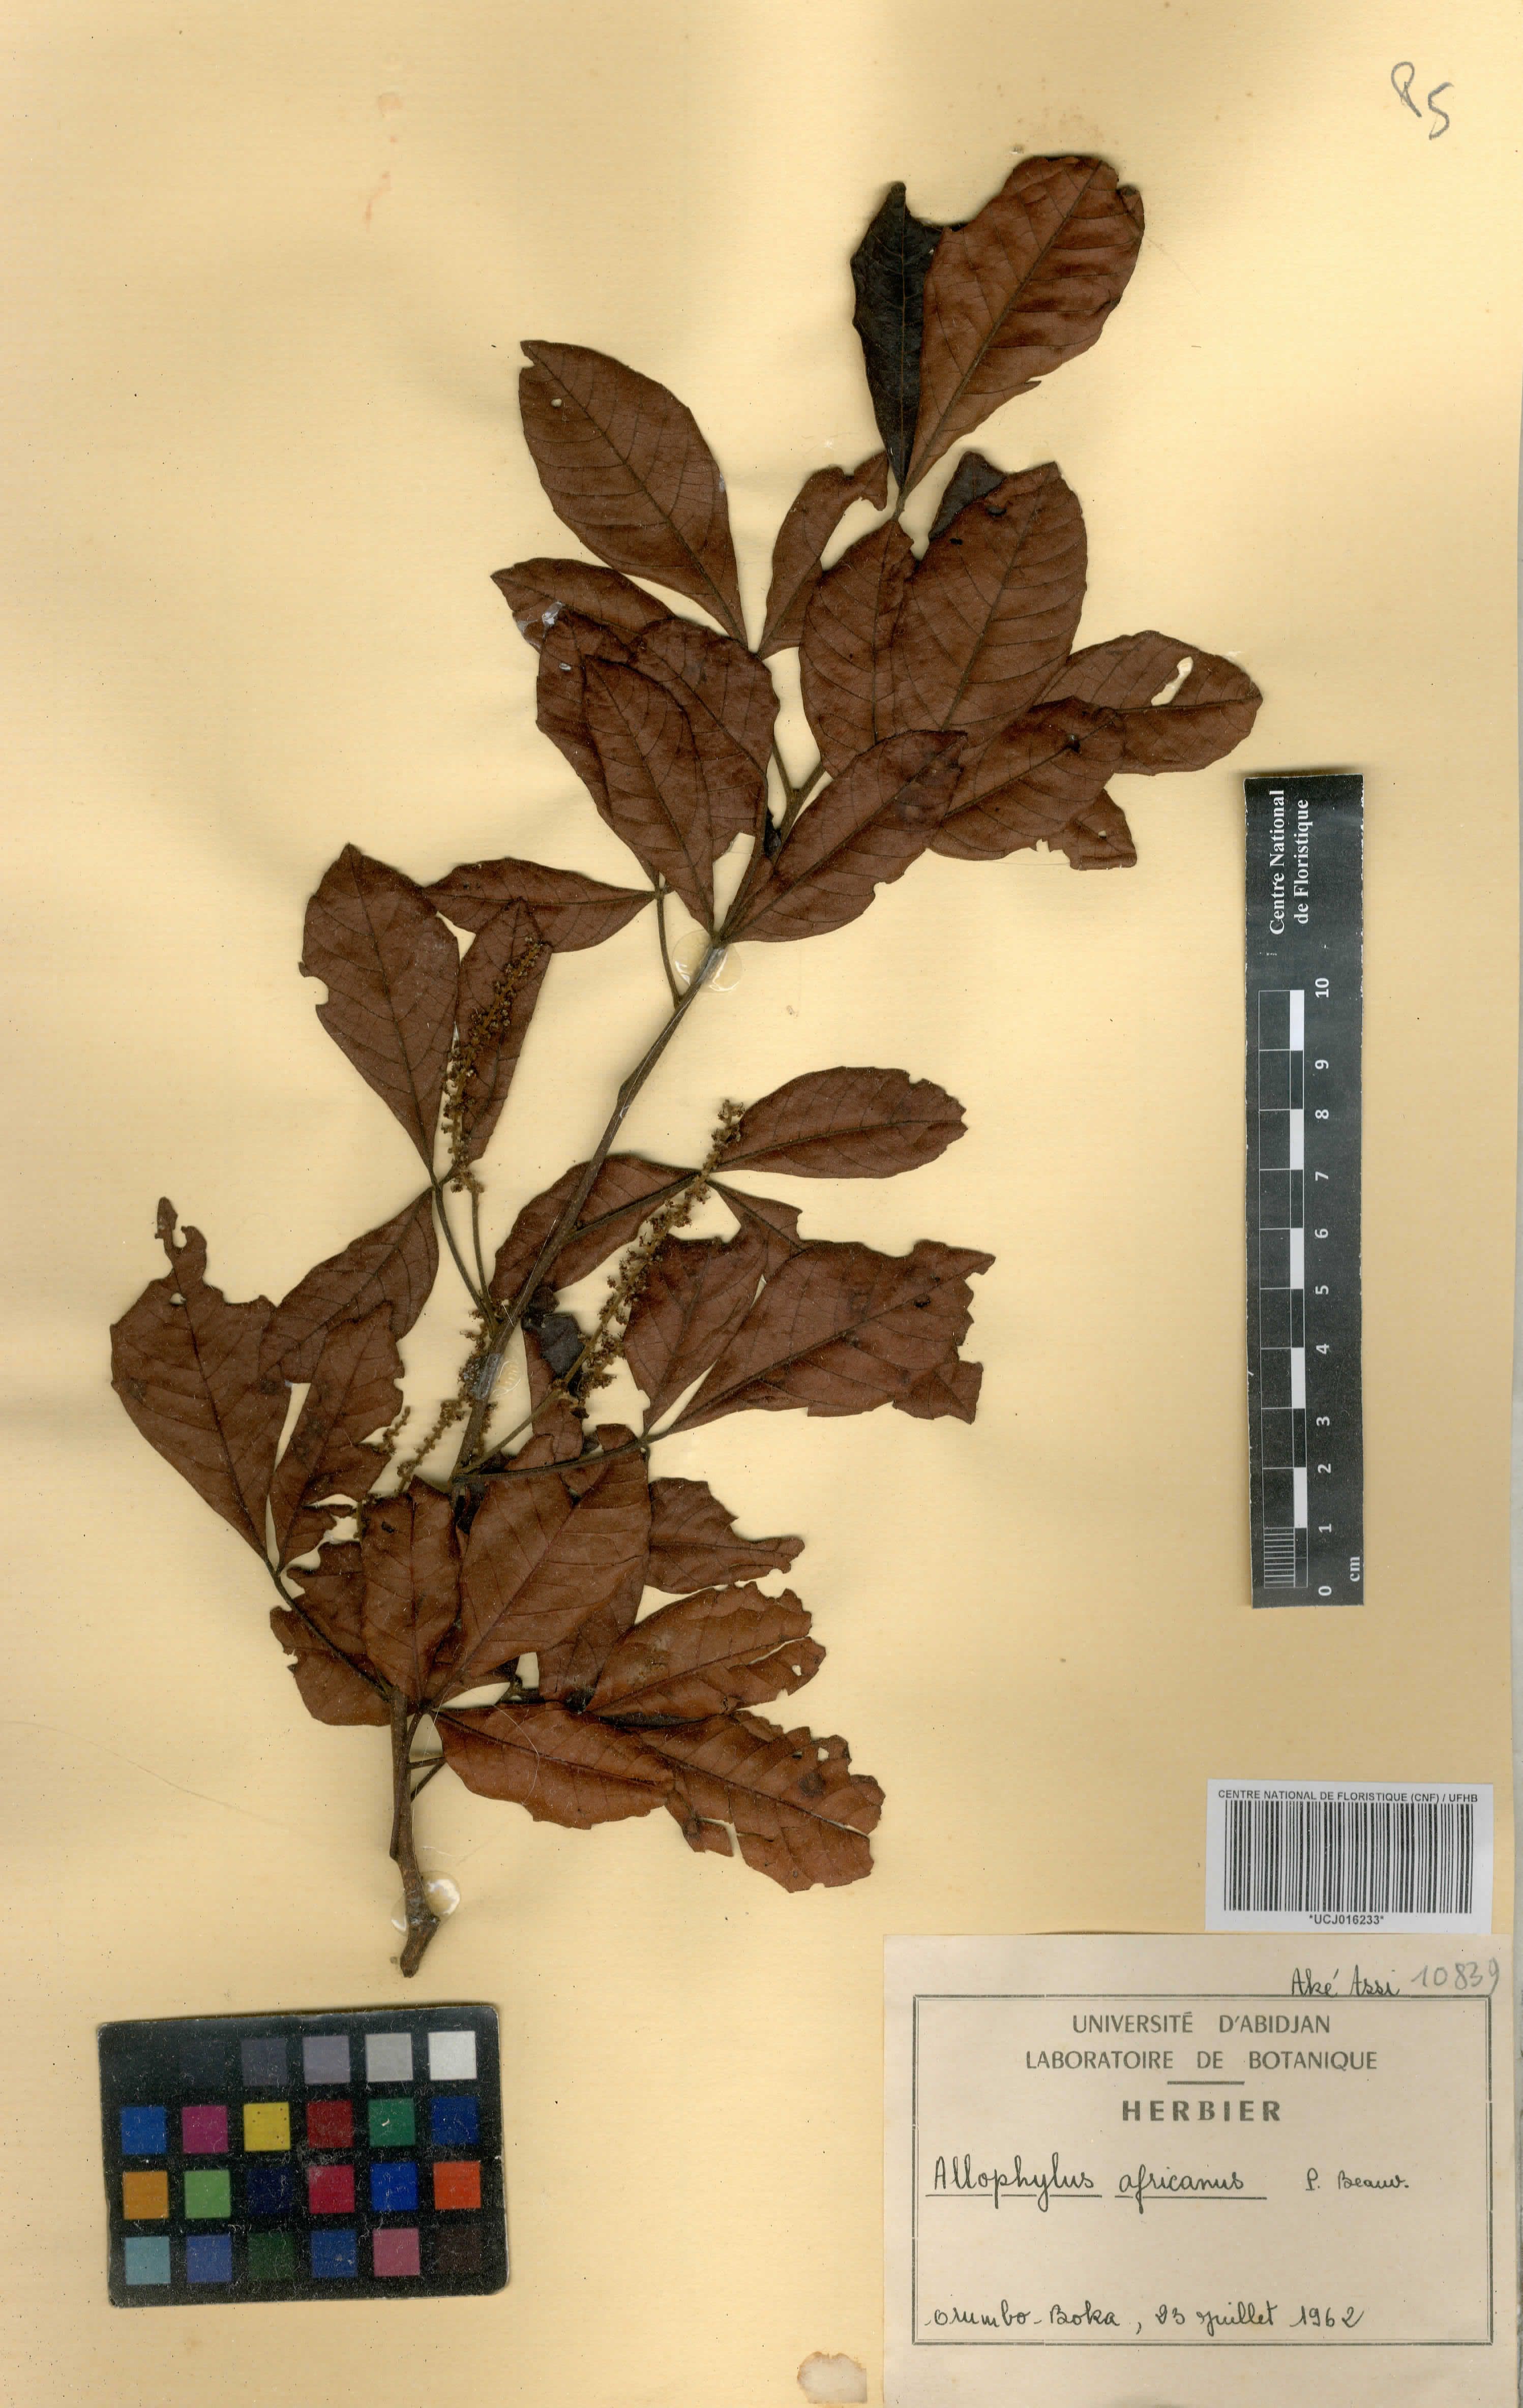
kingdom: Plantae
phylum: Tracheophyta
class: Magnoliopsida
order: Sapindales
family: Sapindaceae
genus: Allophylus
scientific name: Allophylus africanus
